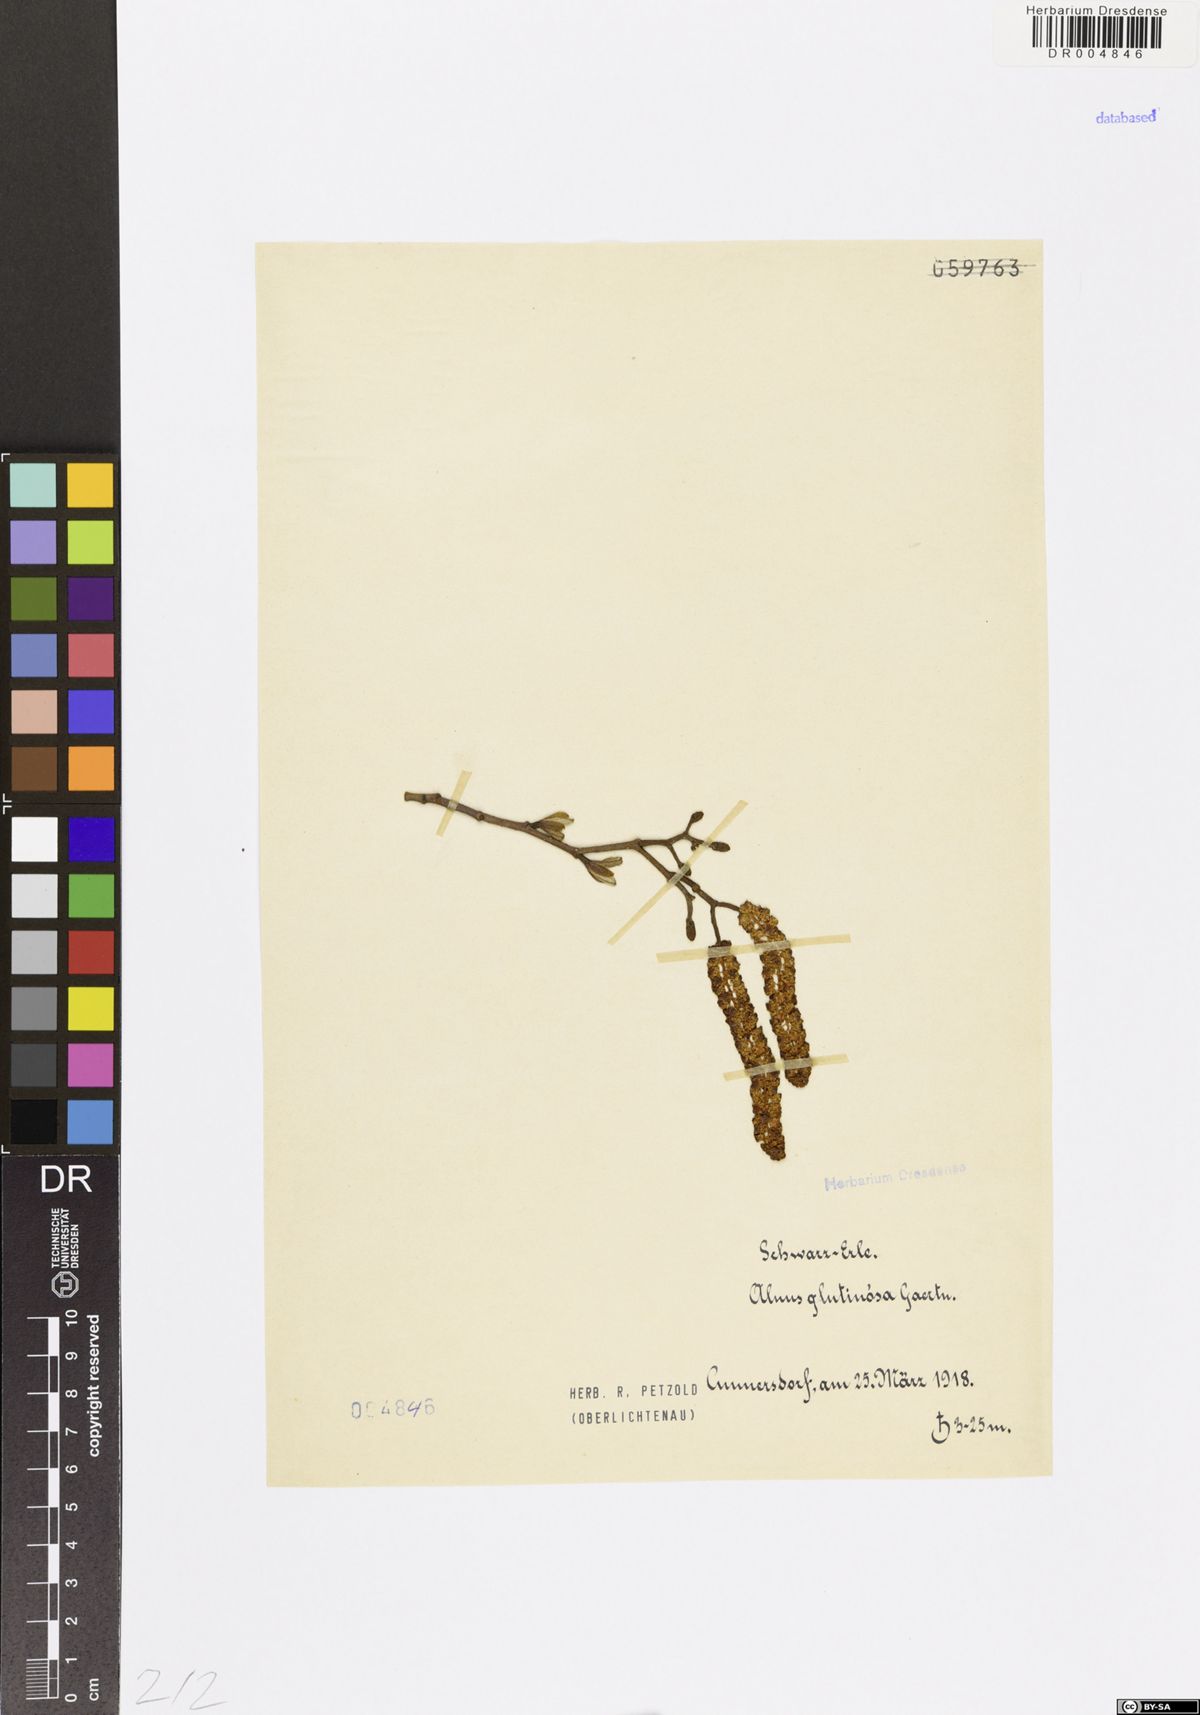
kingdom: Plantae
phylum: Tracheophyta
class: Magnoliopsida
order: Fagales
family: Betulaceae
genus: Alnus
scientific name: Alnus glutinosa
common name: Black alder
